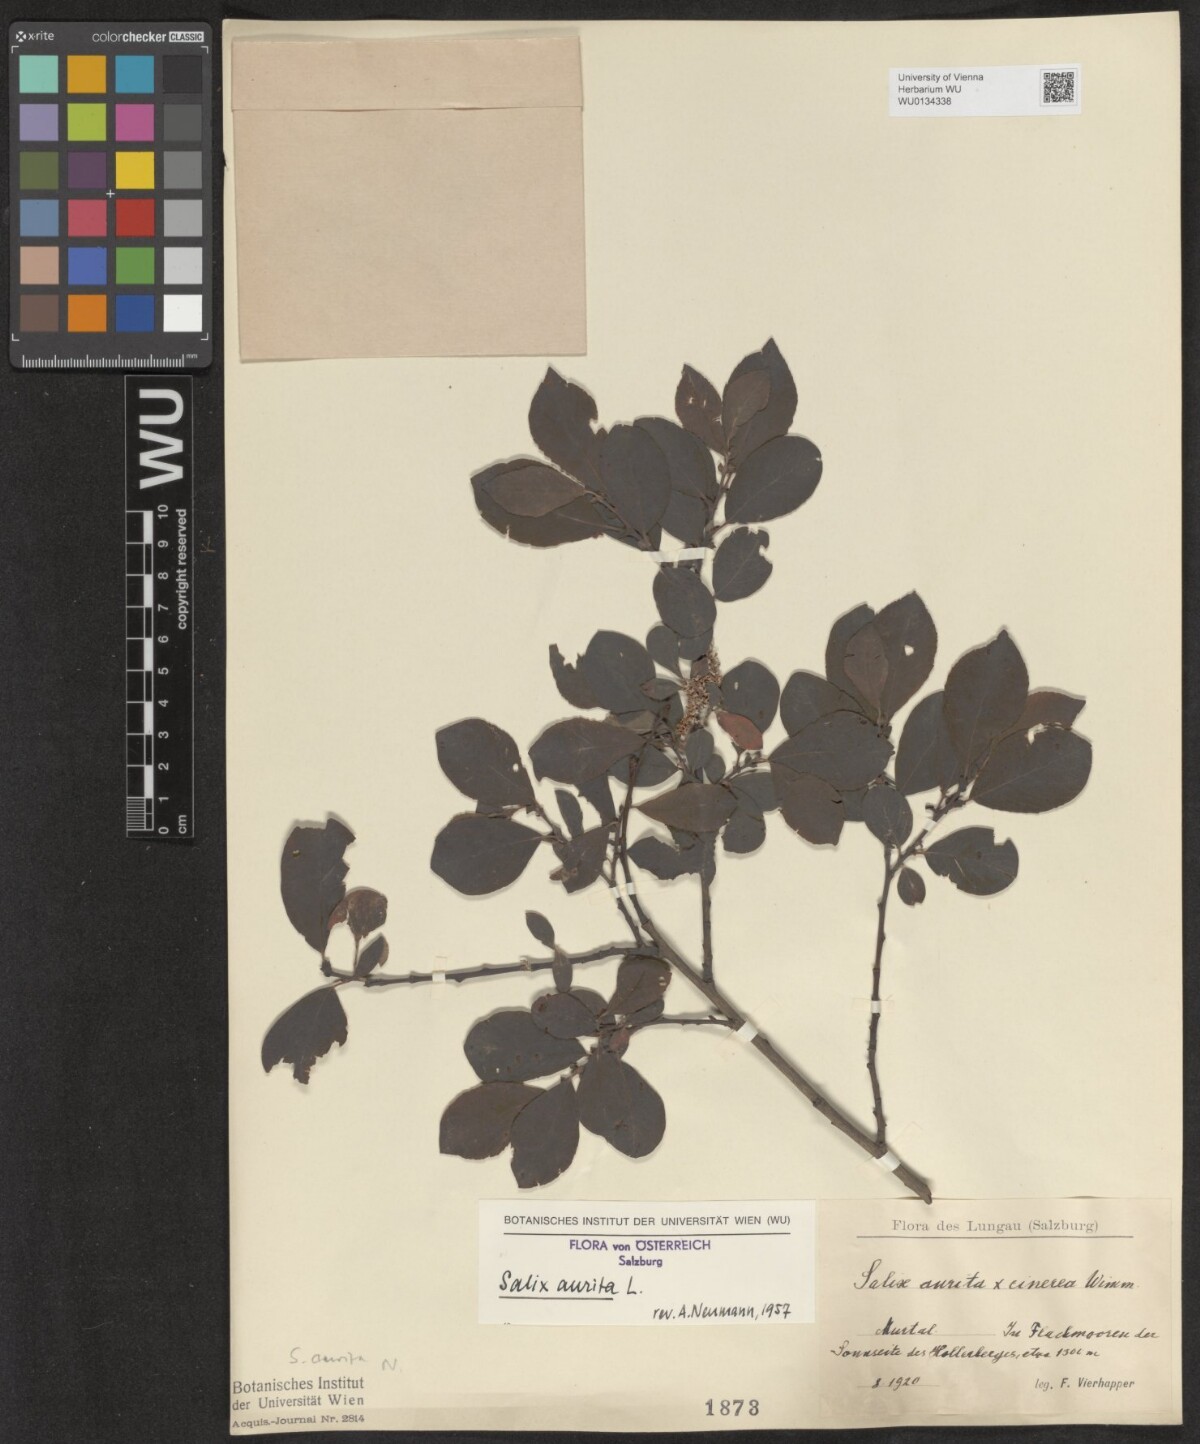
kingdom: Plantae
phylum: Tracheophyta
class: Magnoliopsida
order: Malpighiales
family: Salicaceae
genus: Salix
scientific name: Salix aurita
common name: Eared willow
